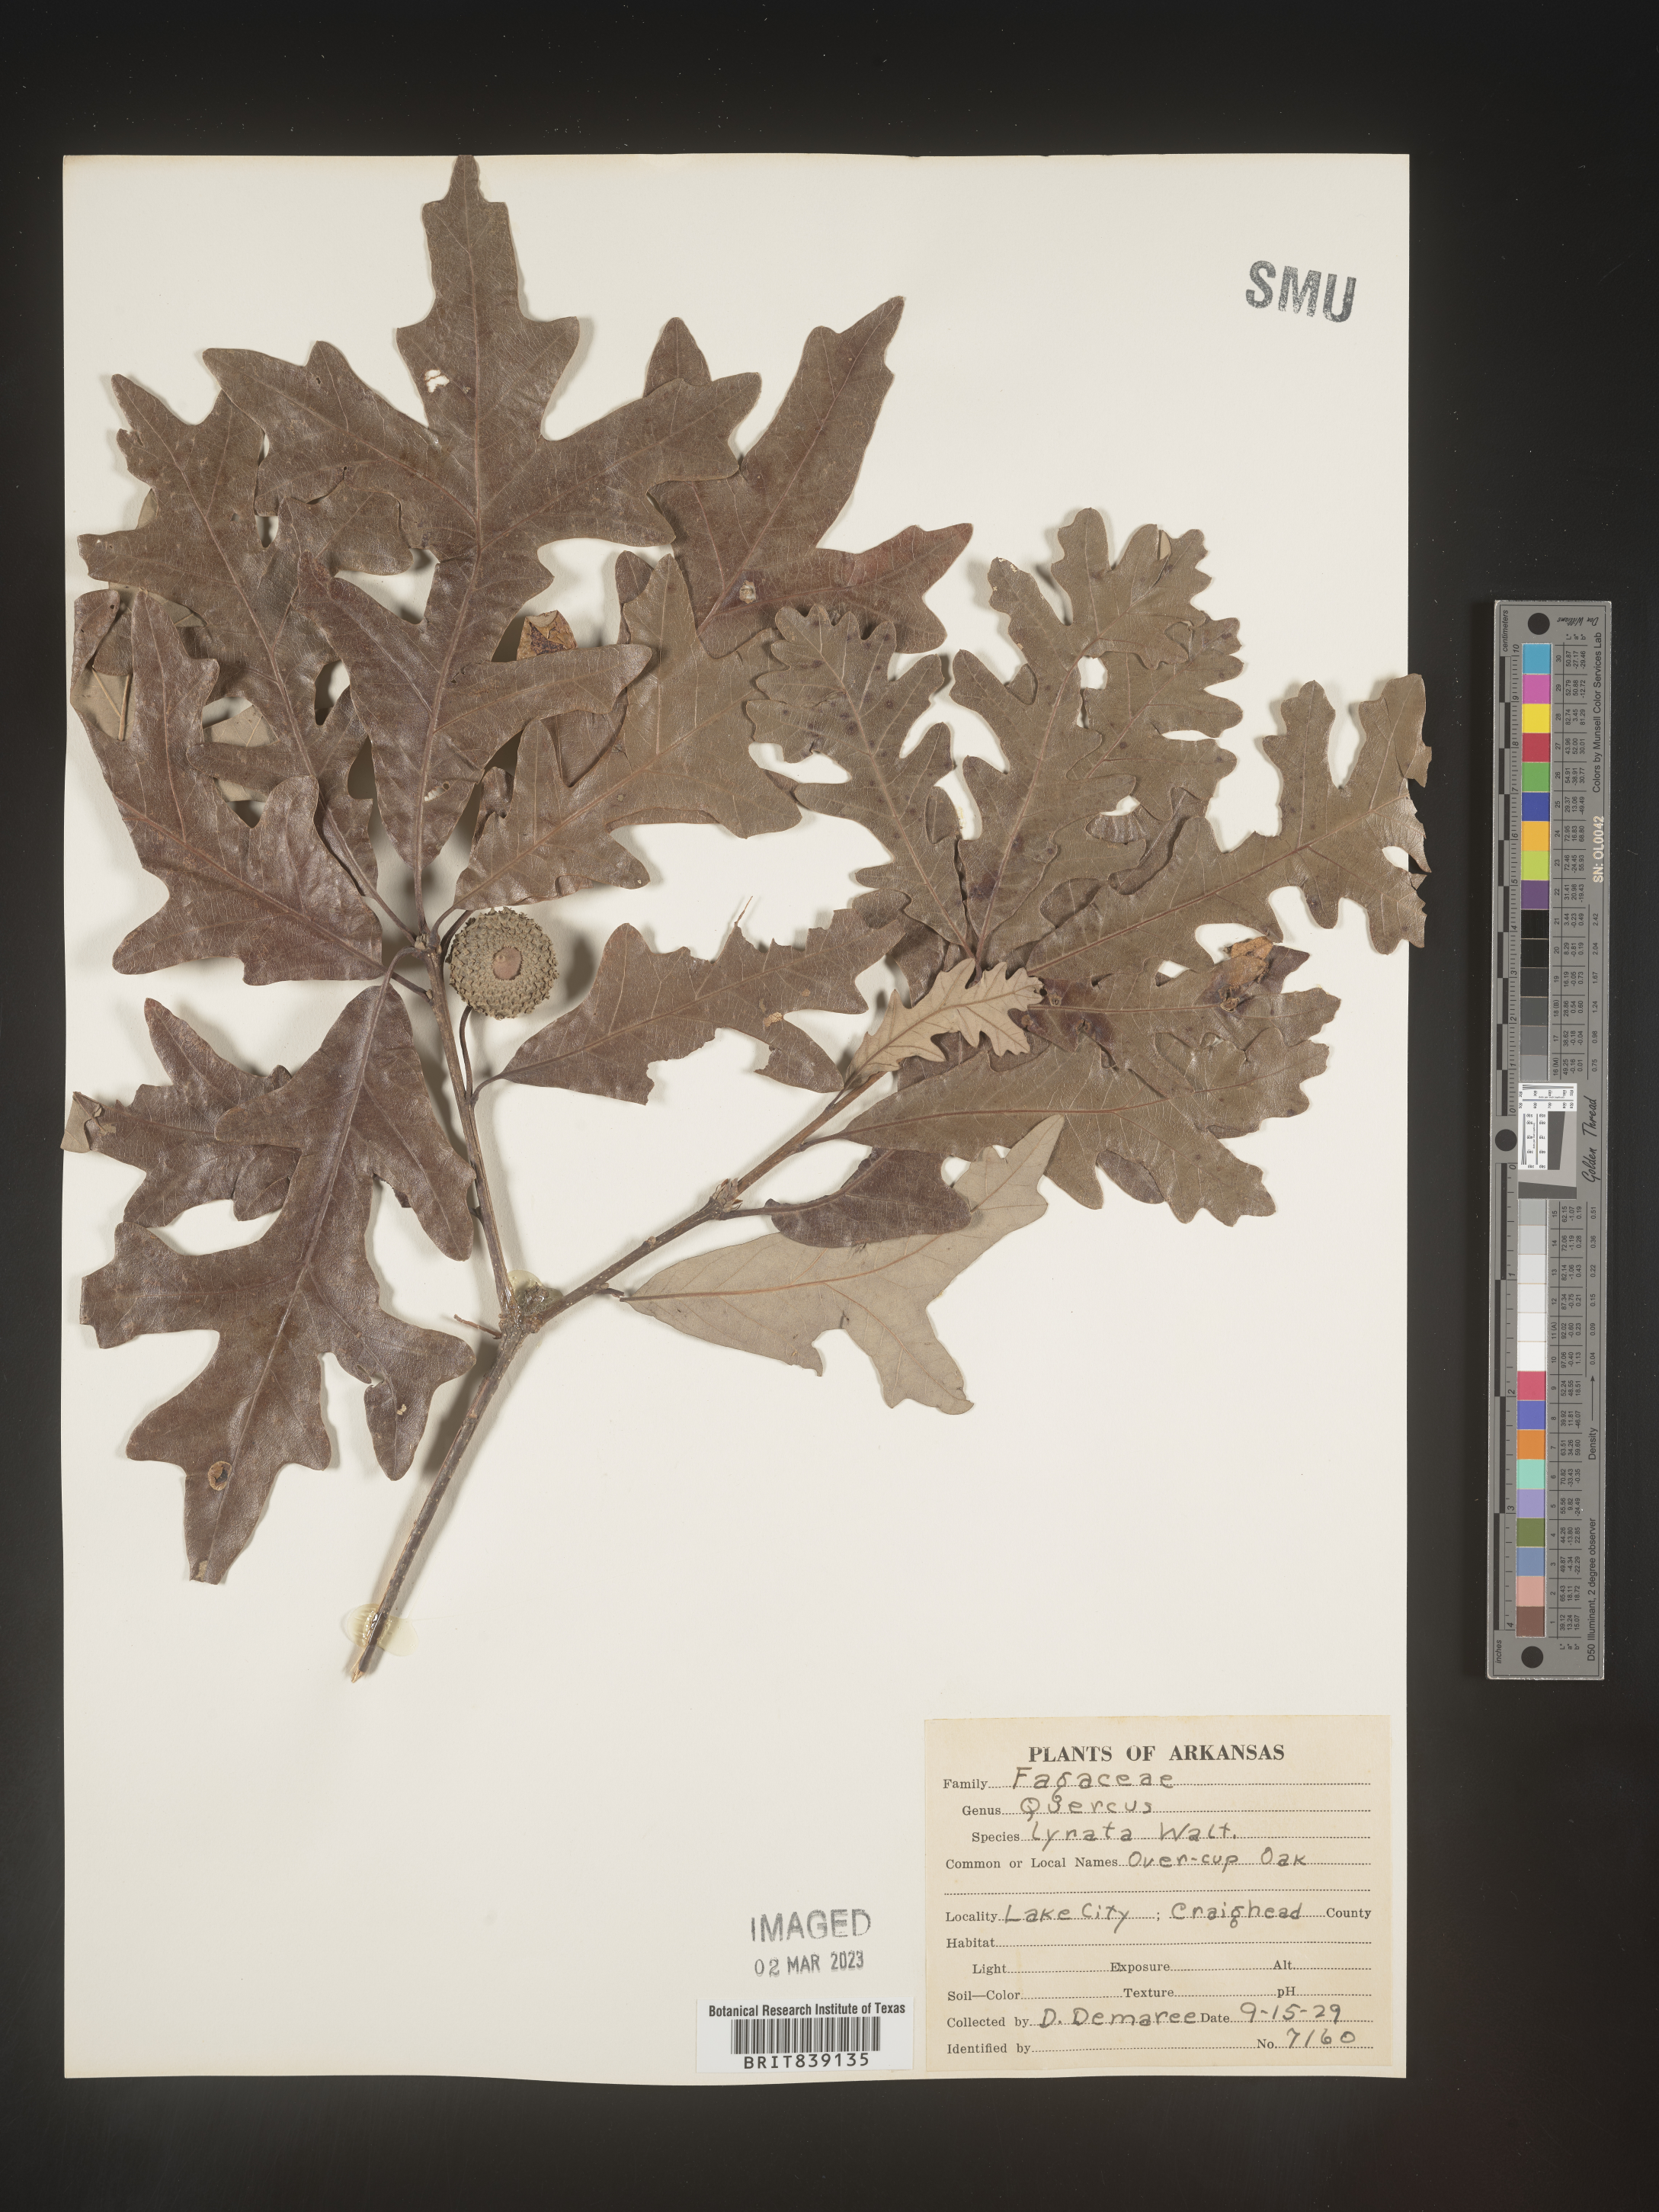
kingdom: Plantae
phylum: Tracheophyta
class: Magnoliopsida
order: Fagales
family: Fagaceae
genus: Quercus
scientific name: Quercus lyrata
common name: Overcup oak
